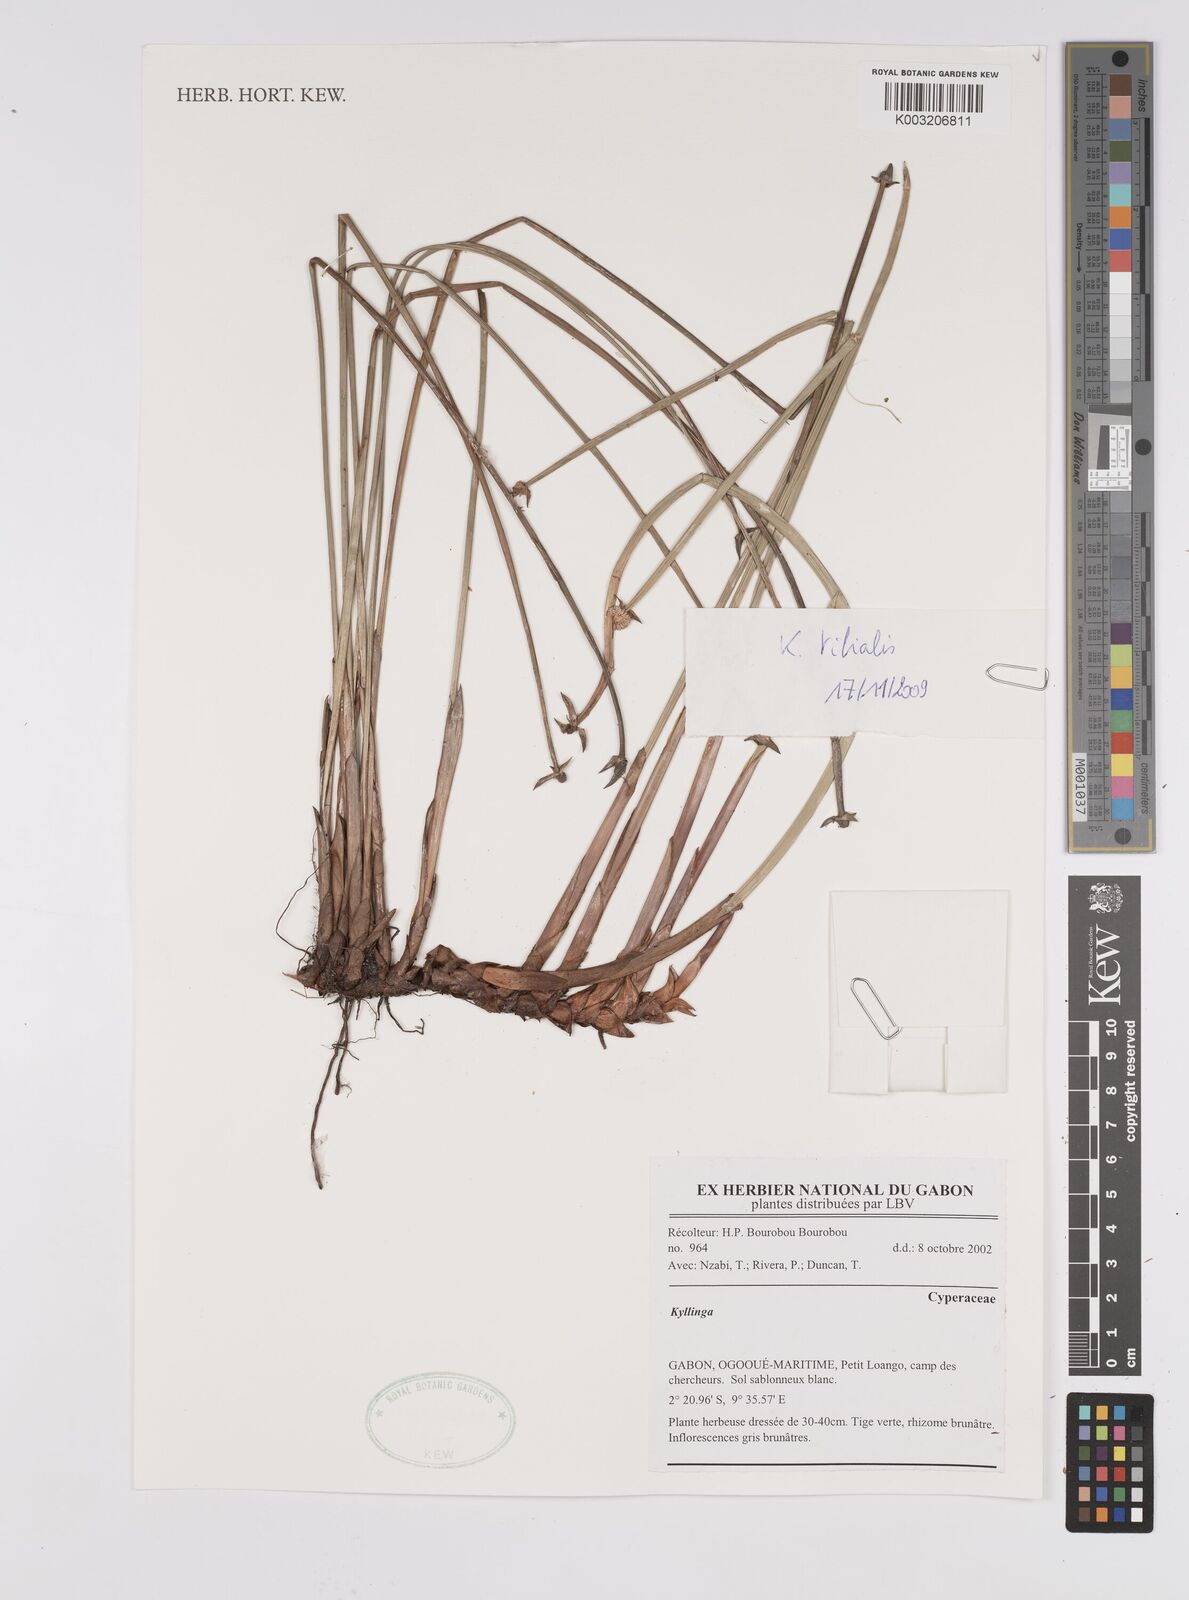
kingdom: Plantae
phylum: Tracheophyta
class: Liliopsida
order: Poales
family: Cyperaceae
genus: Cyperus
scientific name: Cyperus
